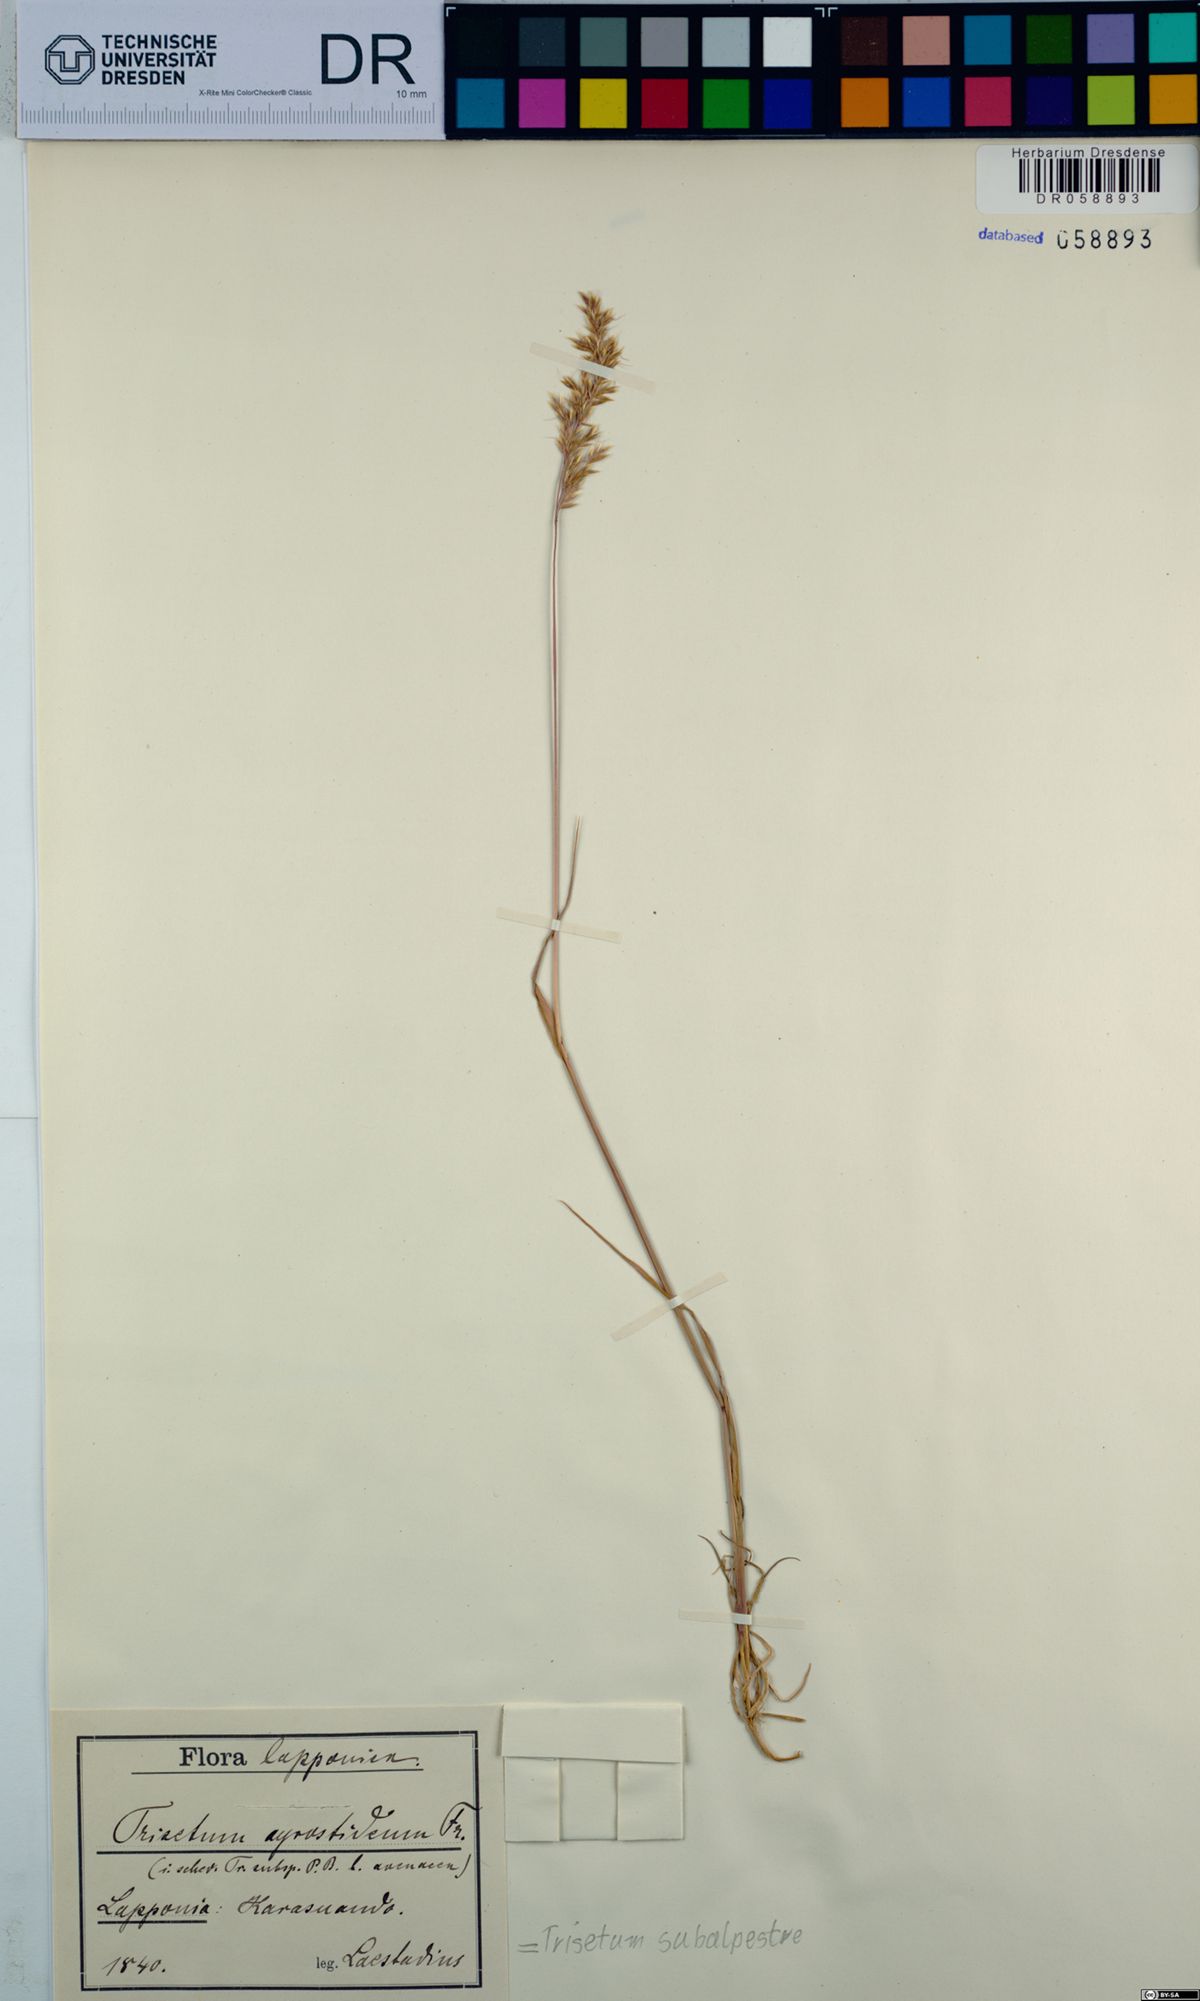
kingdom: Plantae
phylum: Tracheophyta
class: Liliopsida
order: Poales
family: Poaceae
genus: Koeleria
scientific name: Koeleria subalpestris
